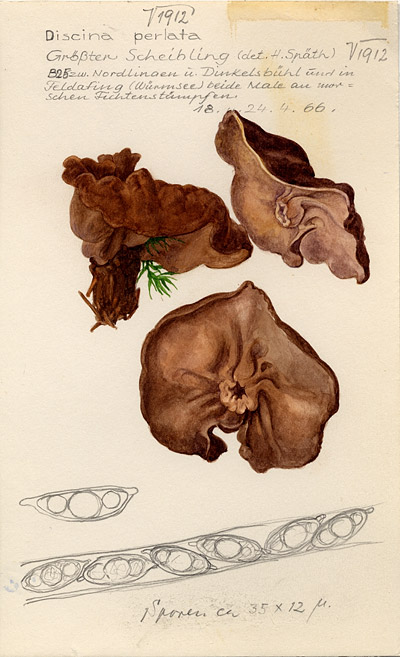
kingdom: Fungi
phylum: Ascomycota
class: Pezizomycetes
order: Pezizales
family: Discinaceae
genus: Discina
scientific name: Discina ancilis
